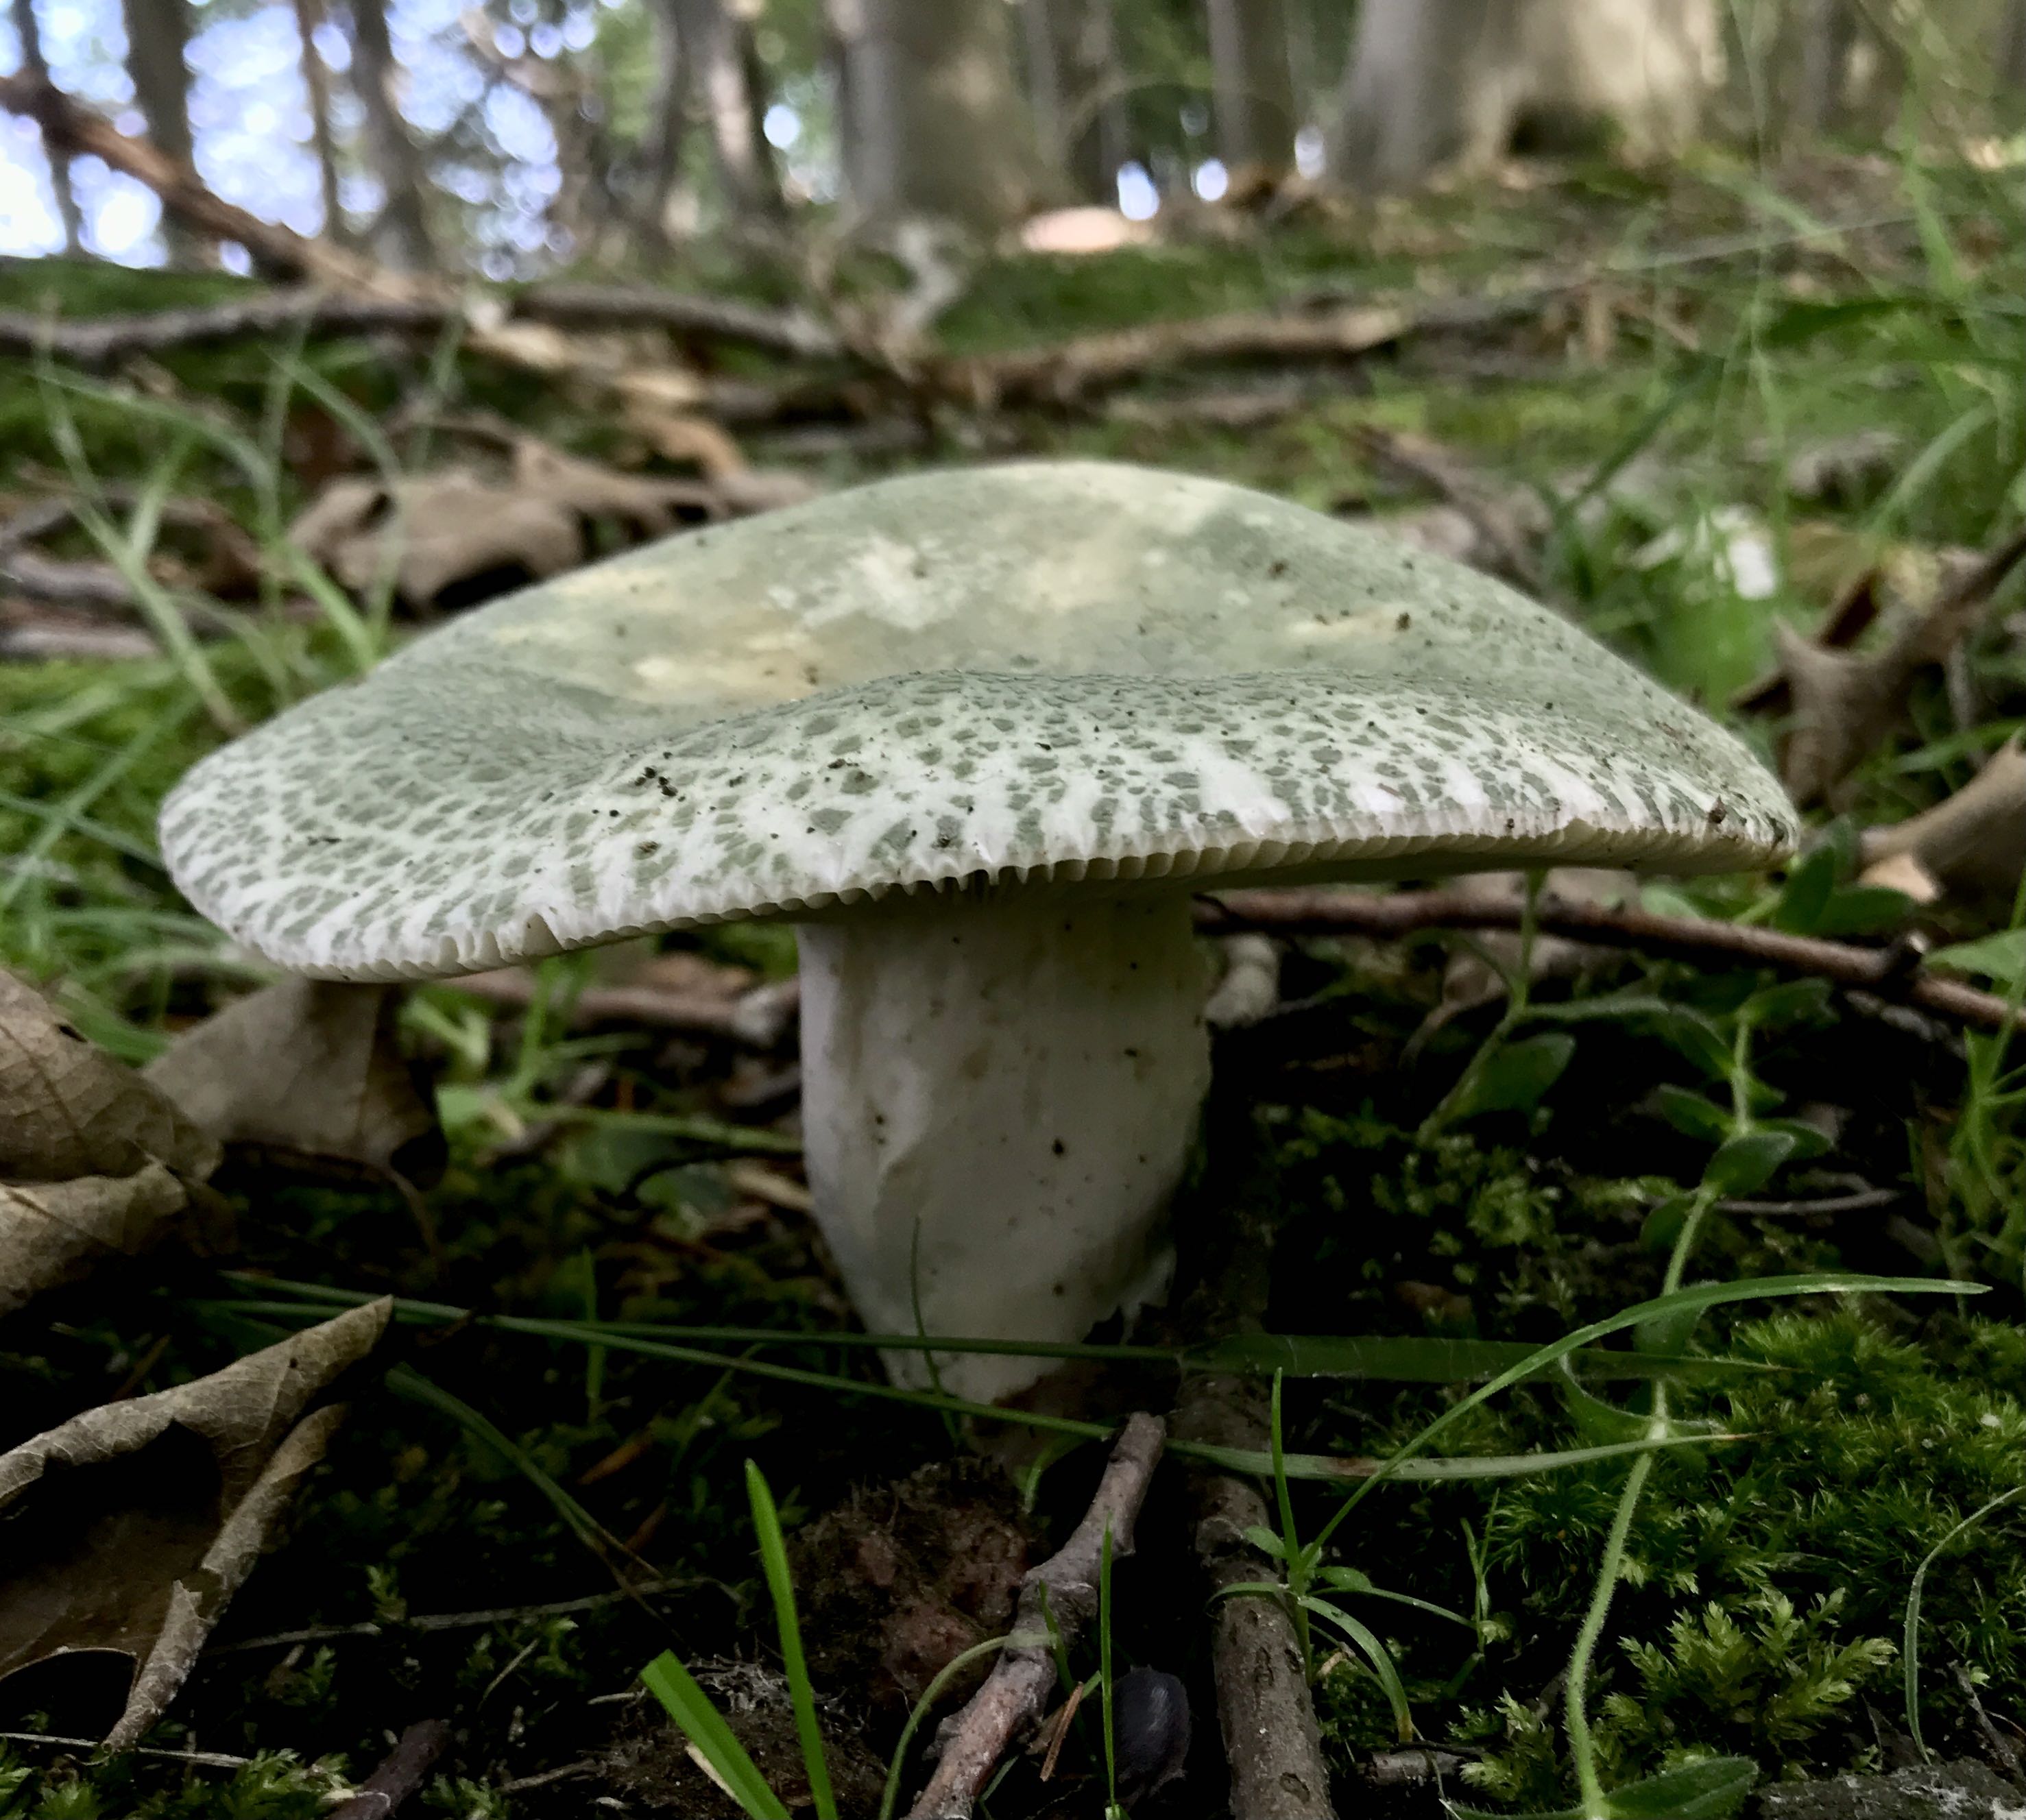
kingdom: Fungi
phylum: Basidiomycota
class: Agaricomycetes
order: Russulales
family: Russulaceae
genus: Russula
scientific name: Russula virescens
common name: spanskgrøn skørhat
